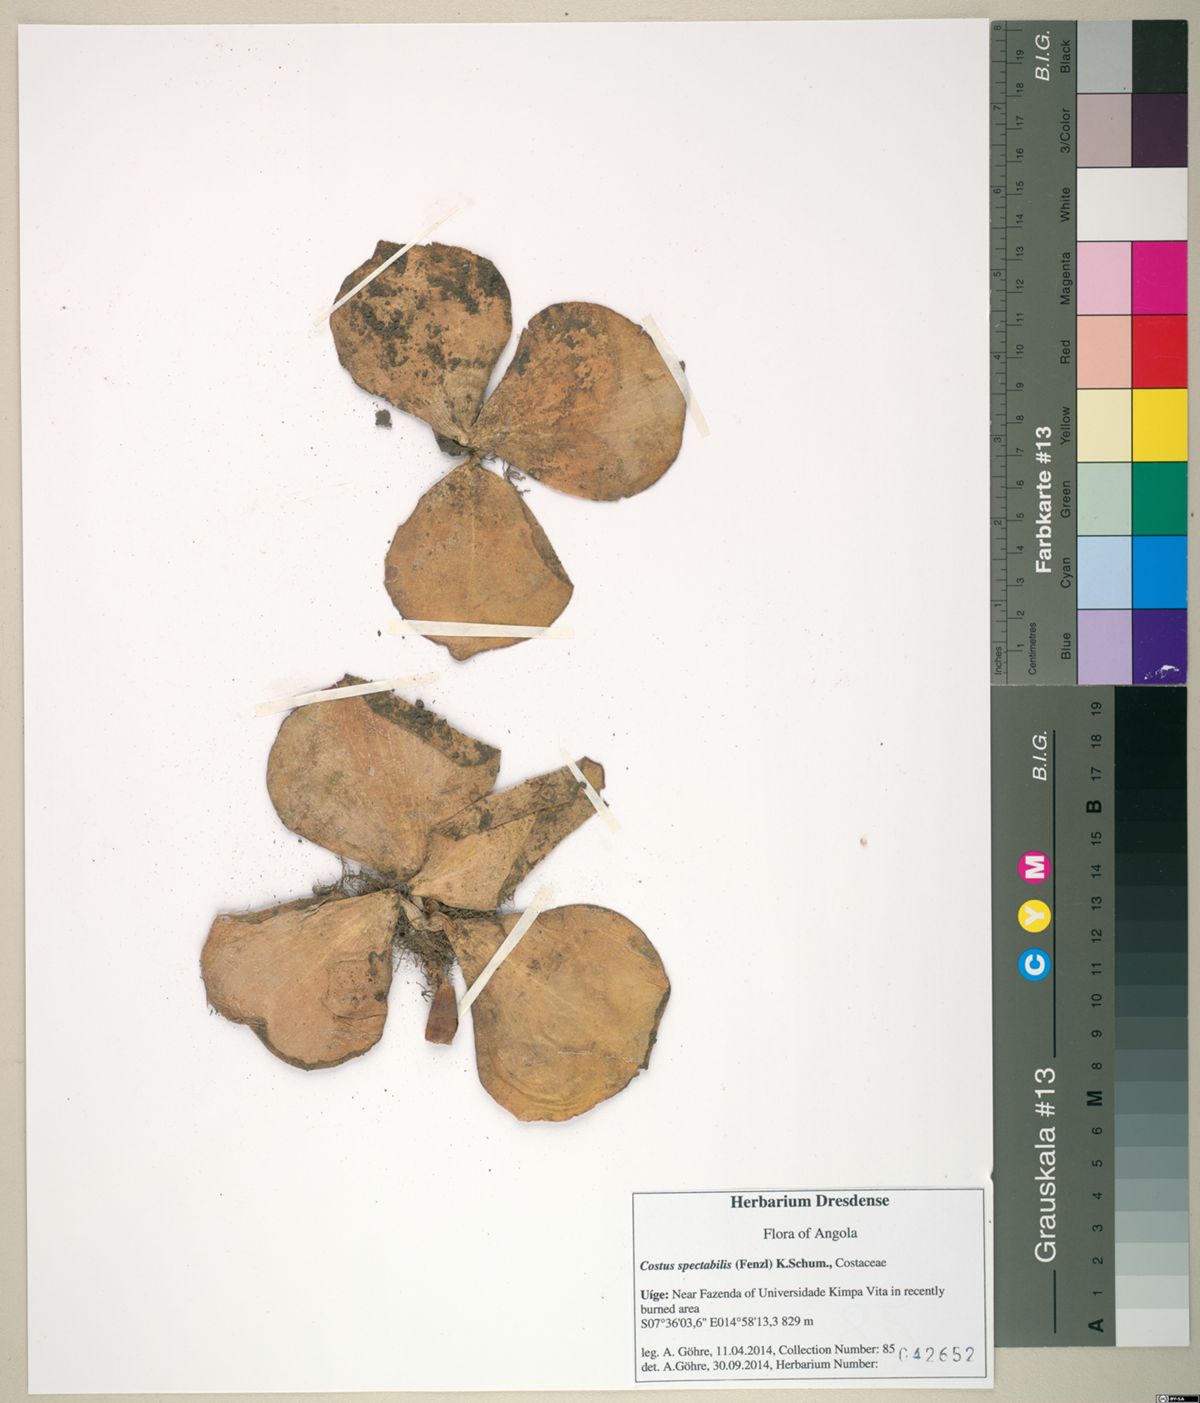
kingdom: Plantae
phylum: Tracheophyta
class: Liliopsida
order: Zingiberales
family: Costaceae
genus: Costus
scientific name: Costus spectabilis
